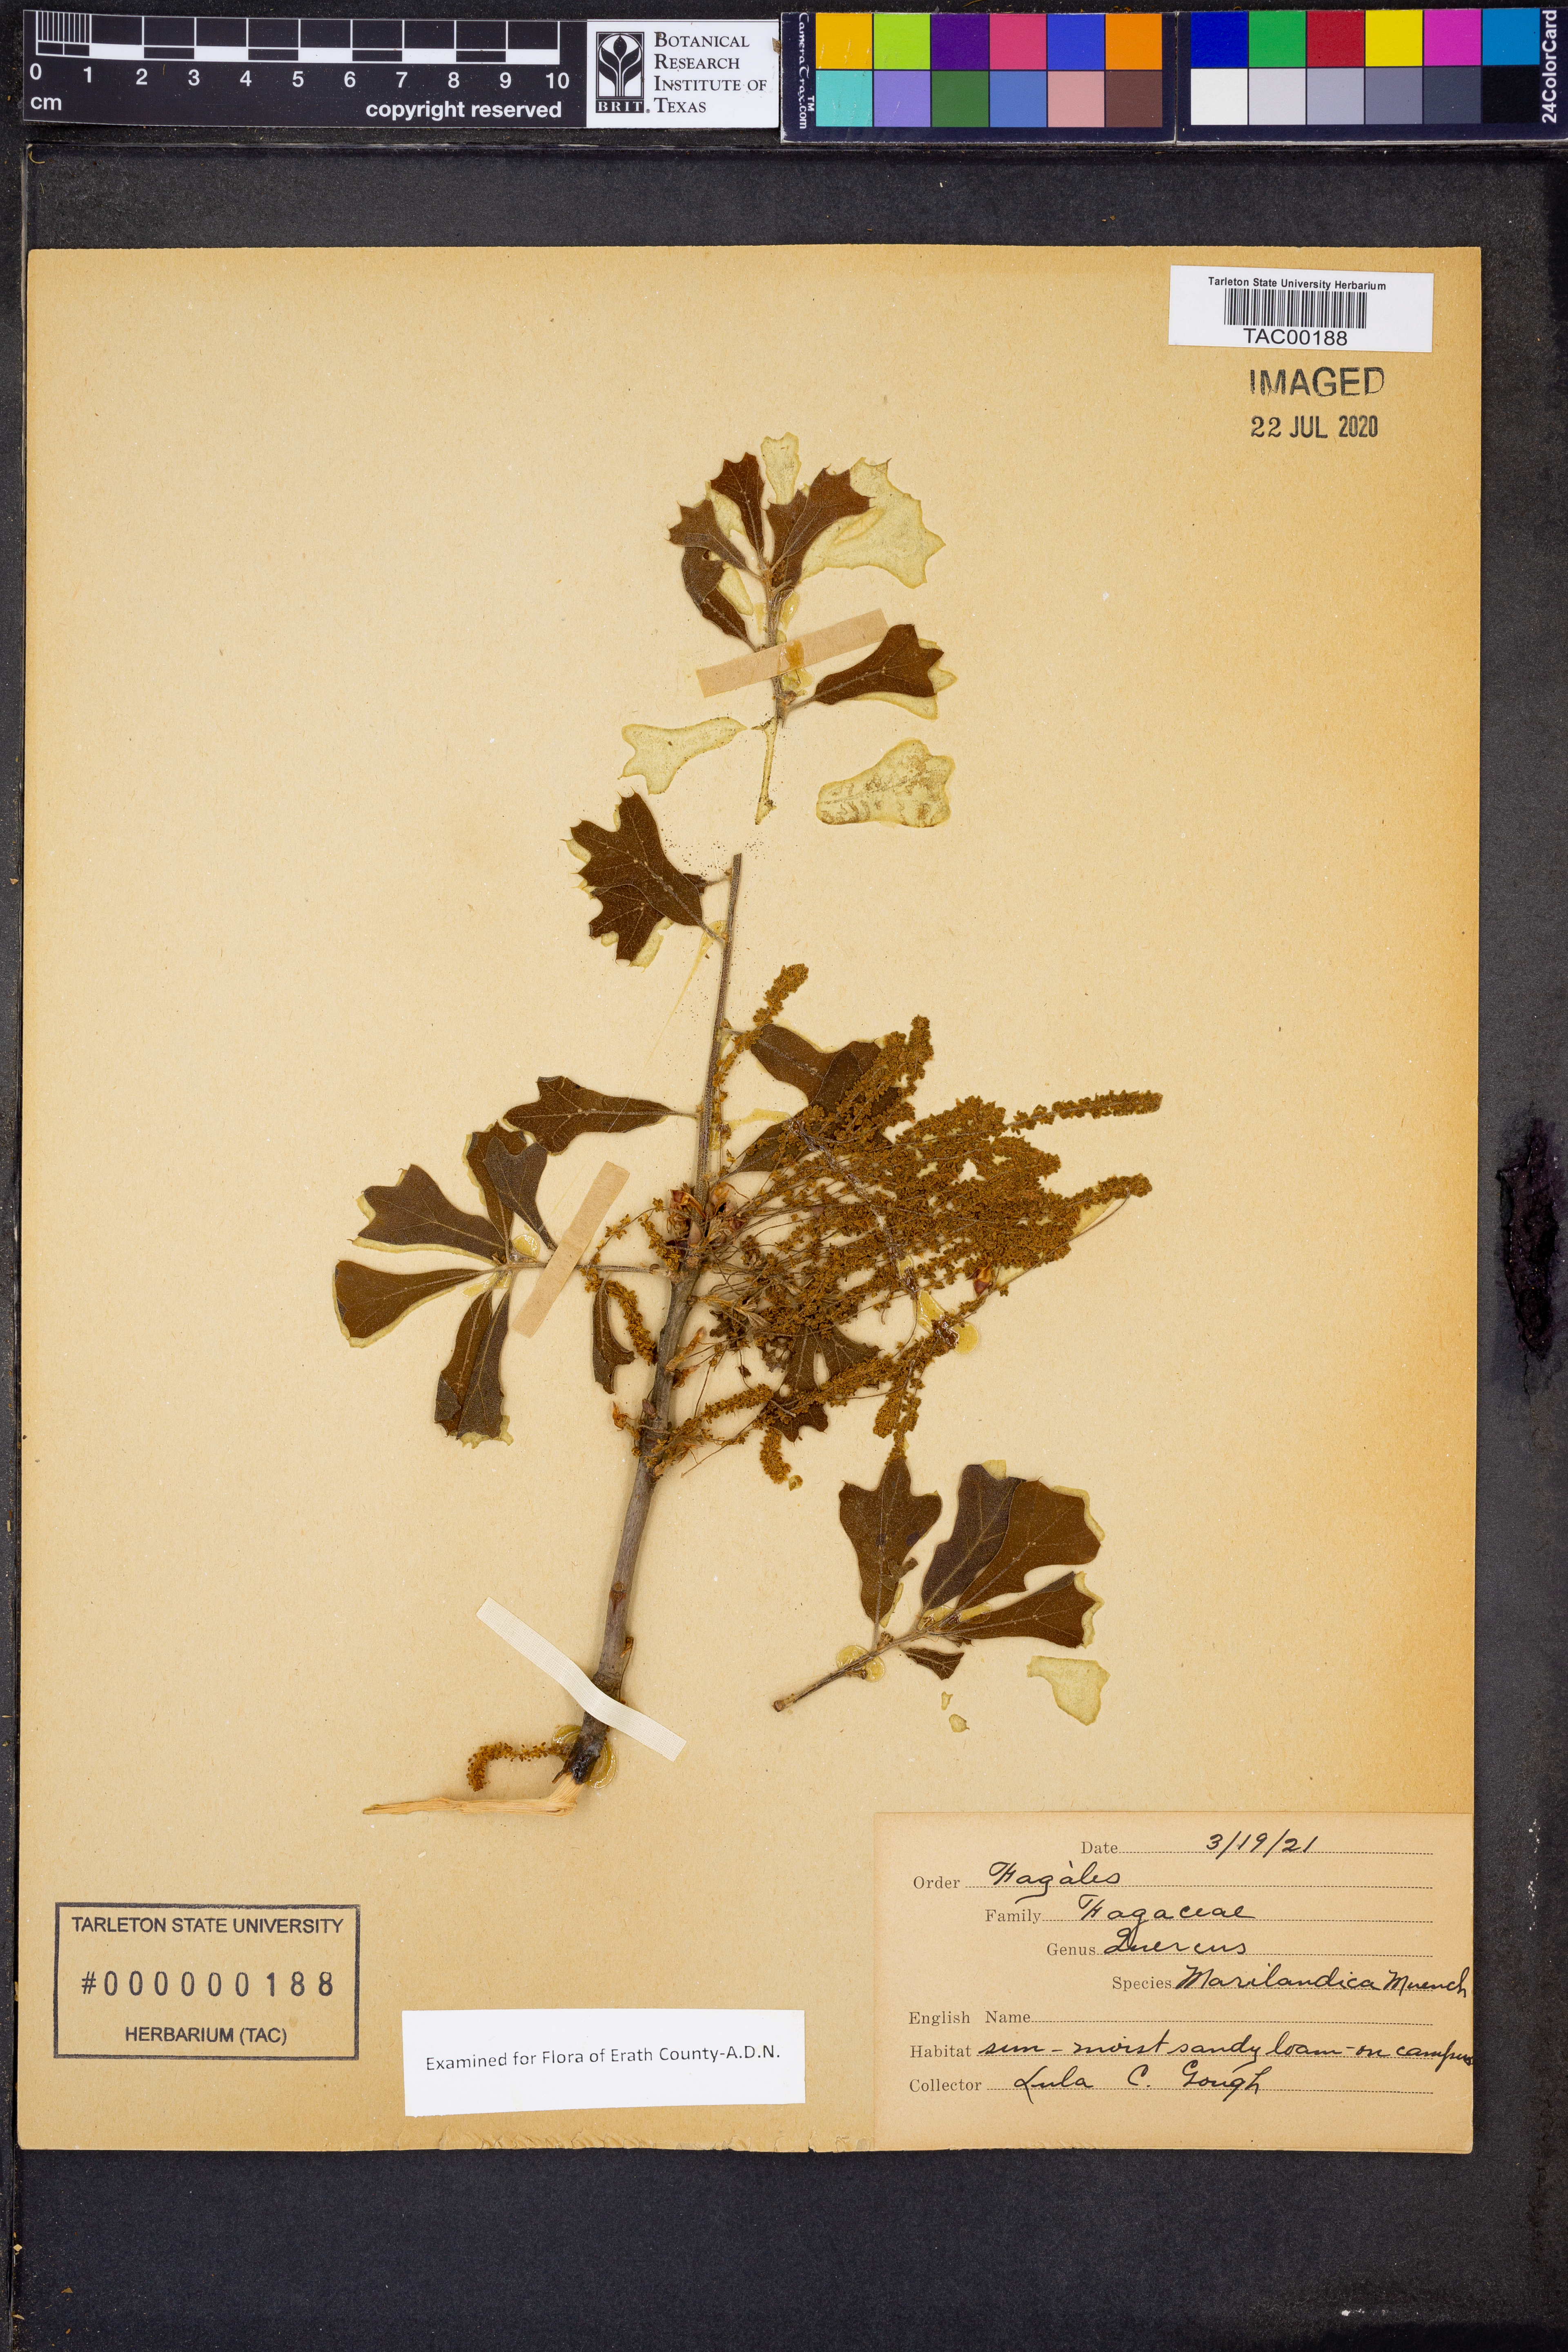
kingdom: Plantae
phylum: Tracheophyta
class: Magnoliopsida
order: Fagales
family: Fagaceae
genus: Quercus
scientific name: Quercus marilandica
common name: Blackjack oak
